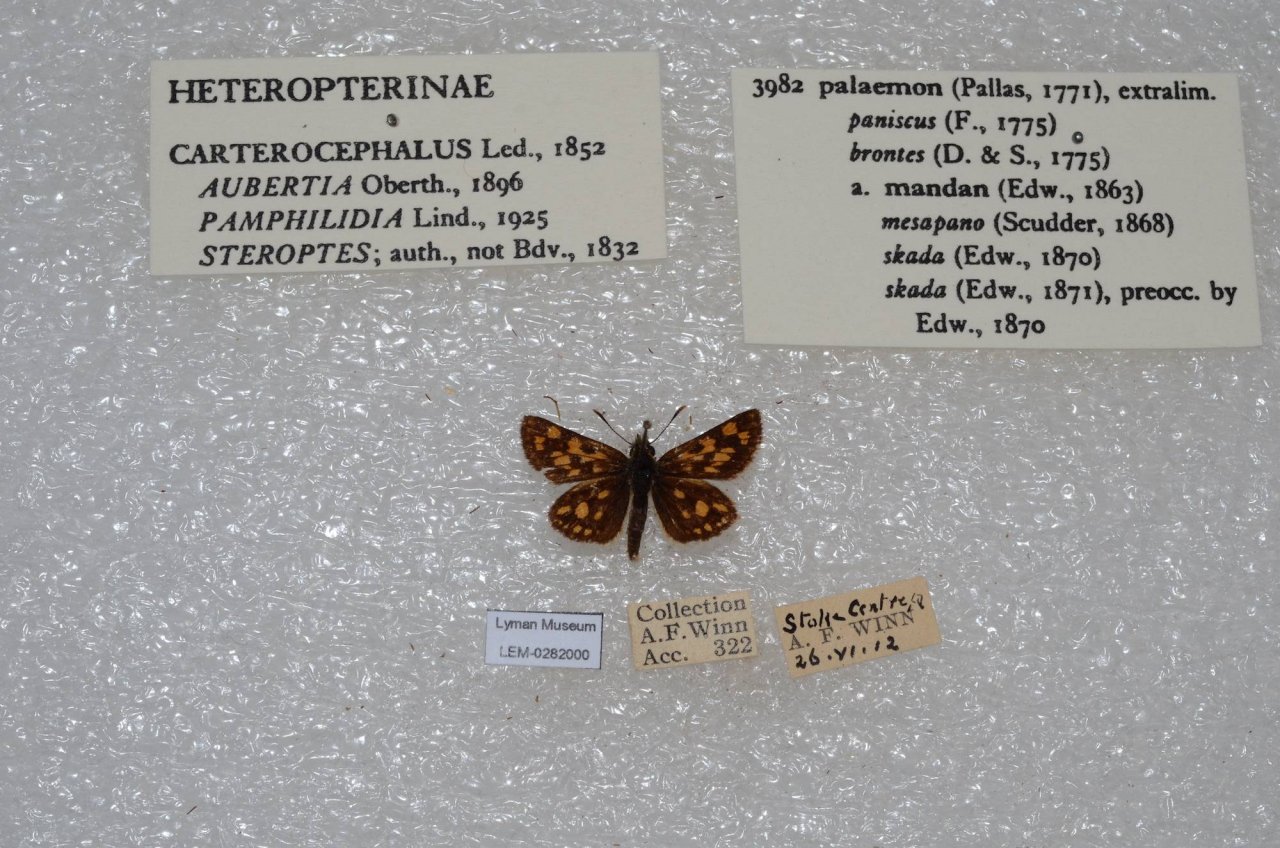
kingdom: Animalia
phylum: Arthropoda
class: Insecta
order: Lepidoptera
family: Hesperiidae
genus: Carterocephalus
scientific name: Carterocephalus palaemon
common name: Chequered Skipper
